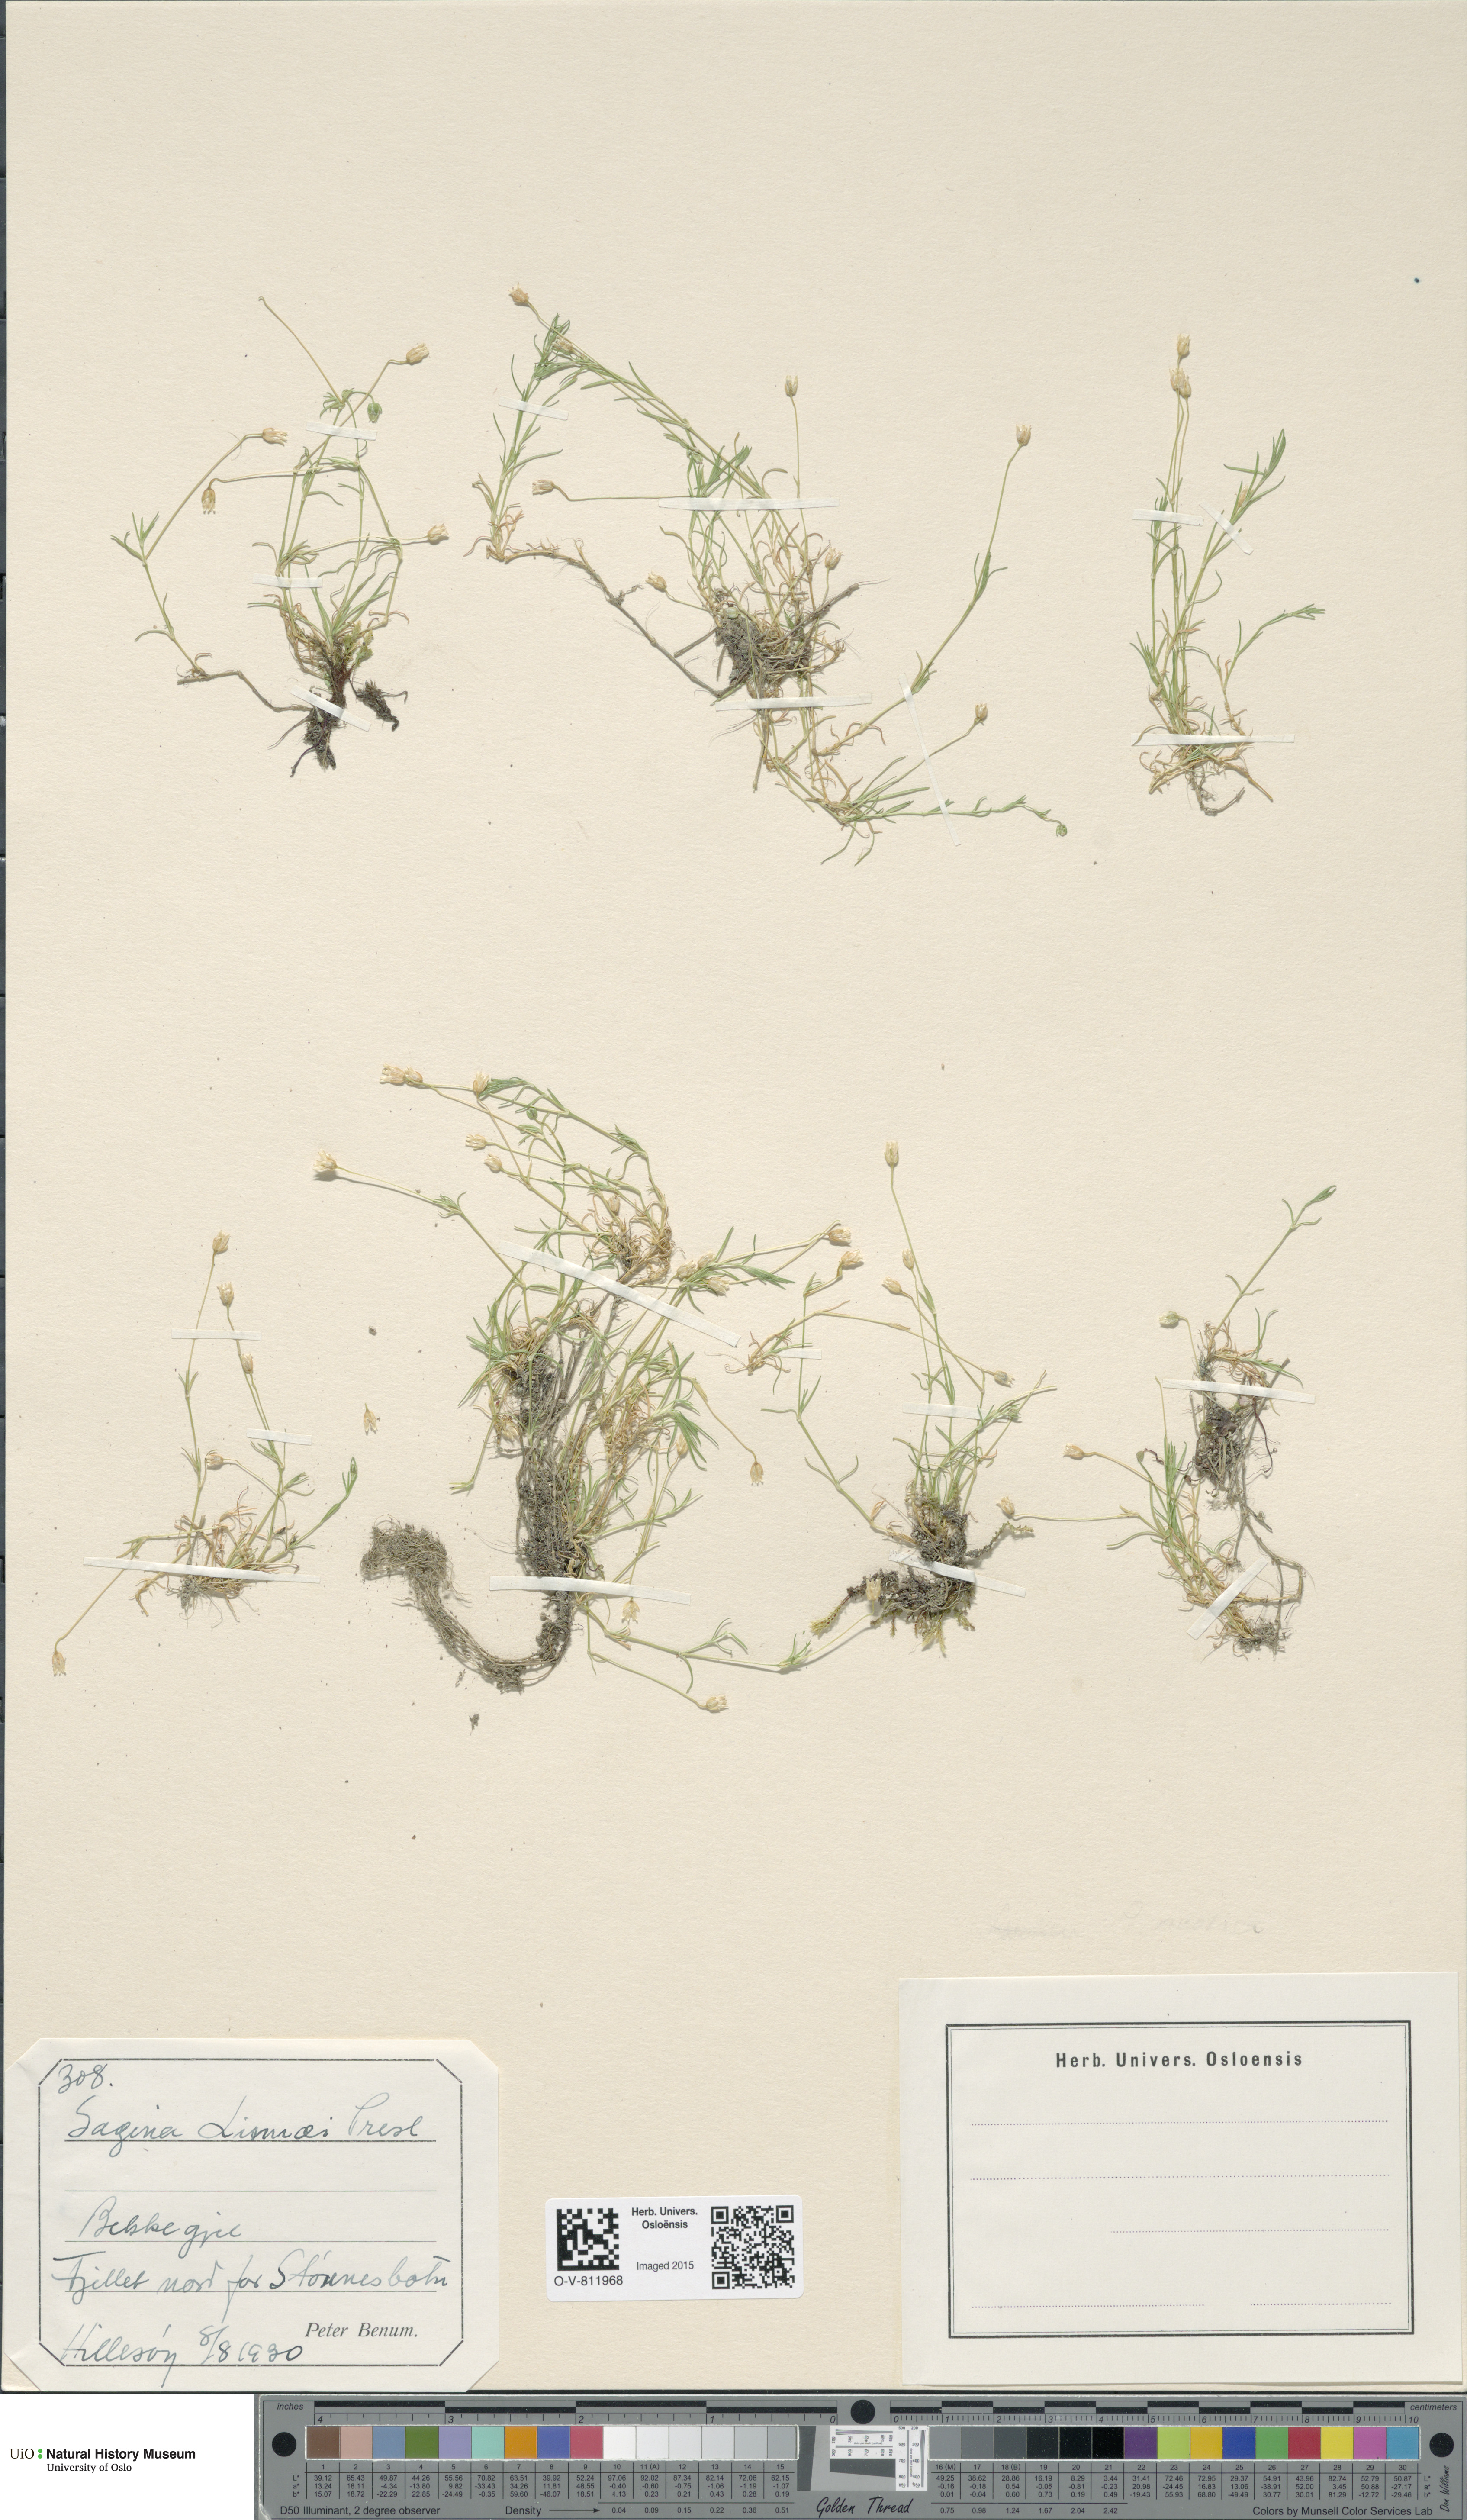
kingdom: Plantae
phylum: Tracheophyta
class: Magnoliopsida
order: Caryophyllales
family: Caryophyllaceae
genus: Sagina
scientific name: Sagina saginoides
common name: Alpine pearlwort
